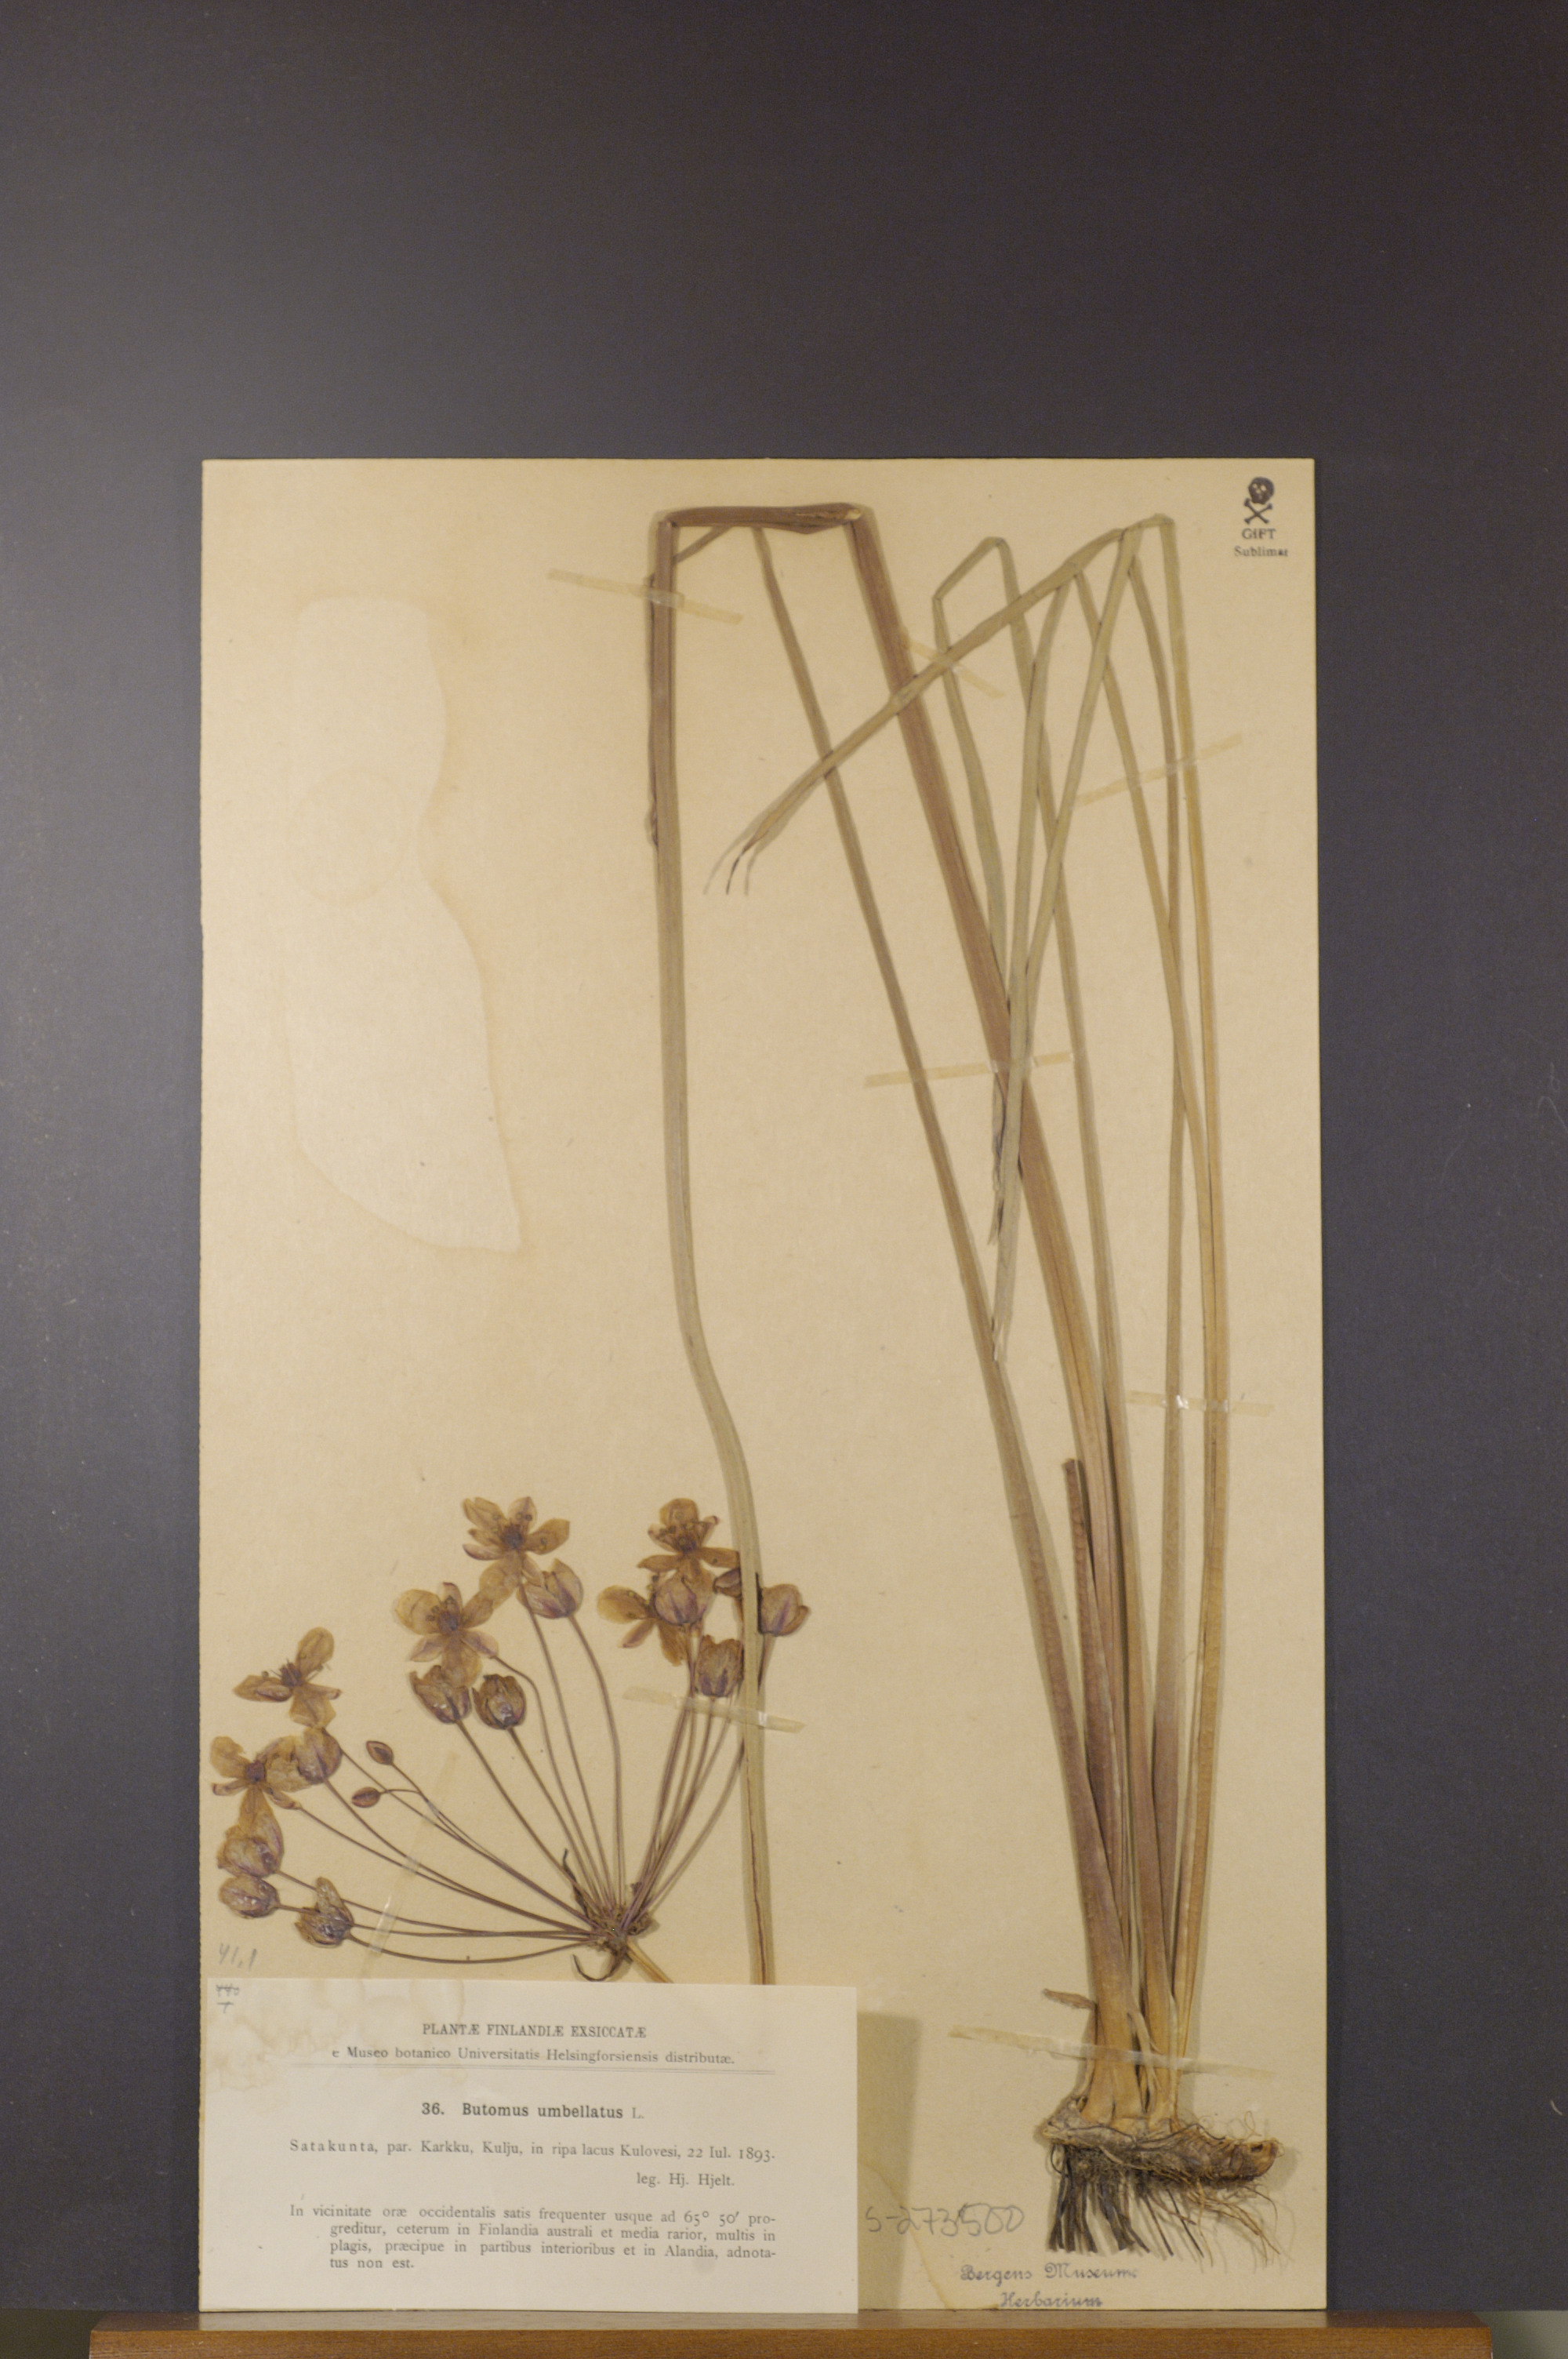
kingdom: Plantae
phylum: Tracheophyta
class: Liliopsida
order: Alismatales
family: Butomaceae
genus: Butomus
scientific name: Butomus umbellatus
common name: Flowering-rush
